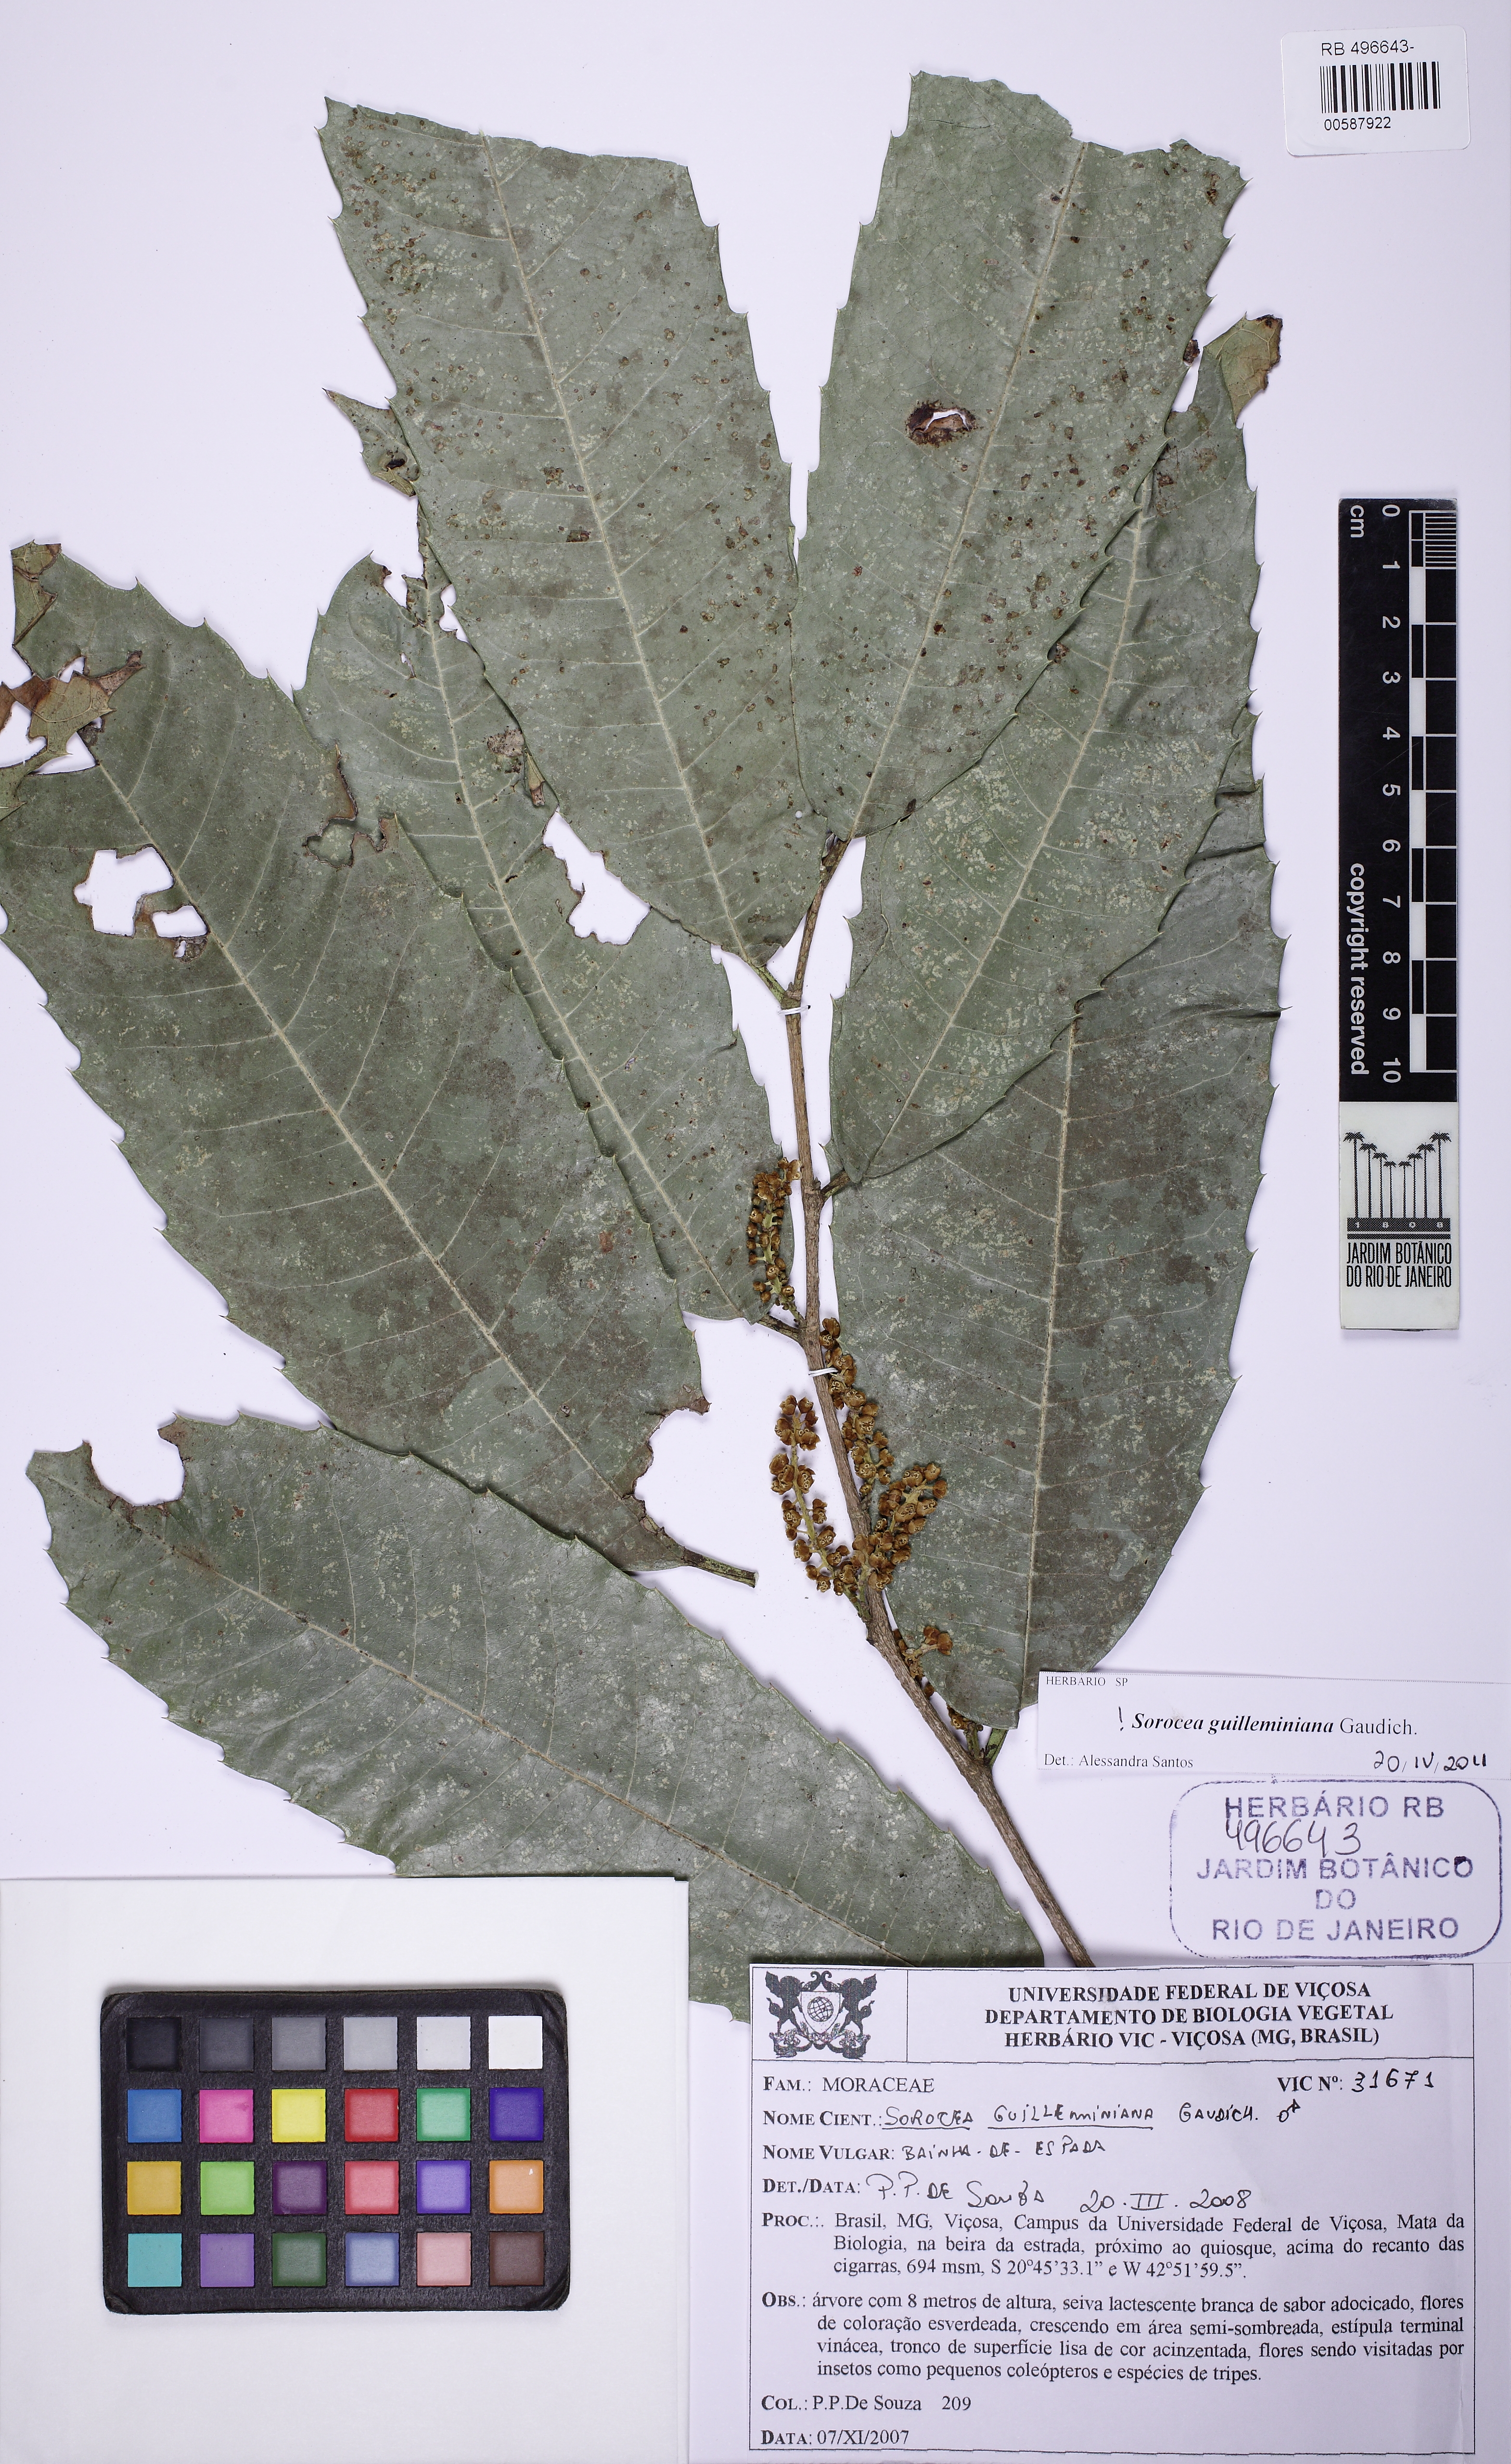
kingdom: Plantae
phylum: Tracheophyta
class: Magnoliopsida
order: Rosales
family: Moraceae
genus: Sorocea
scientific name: Sorocea guilleminiana
